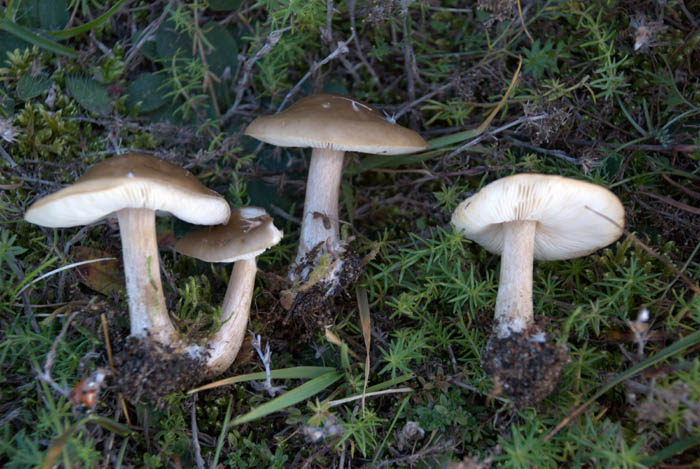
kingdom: Fungi
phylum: Basidiomycota
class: Agaricomycetes
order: Agaricales
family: Tricholomataceae
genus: Melanoleuca
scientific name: Melanoleuca polioleuca
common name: hvidbladet munkehat
